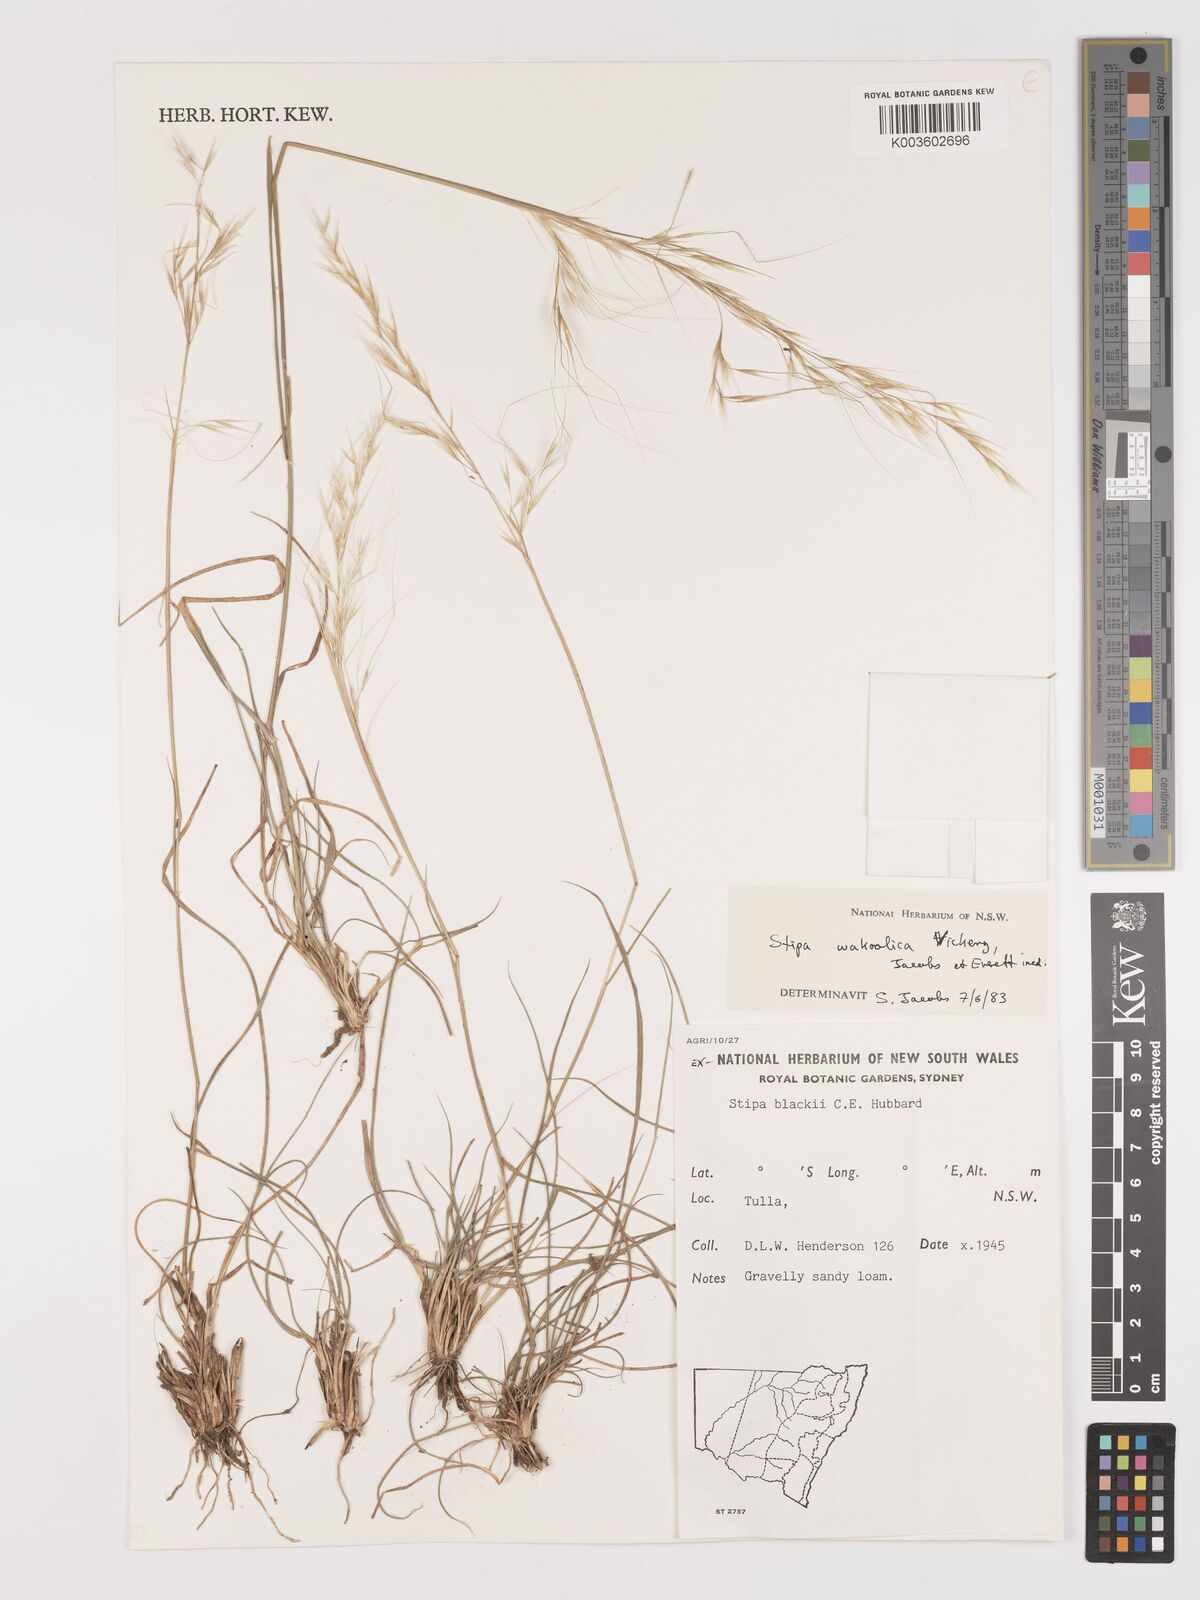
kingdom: Plantae
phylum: Tracheophyta
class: Liliopsida
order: Poales
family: Poaceae
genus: Austrostipa
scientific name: Austrostipa wakoolica
